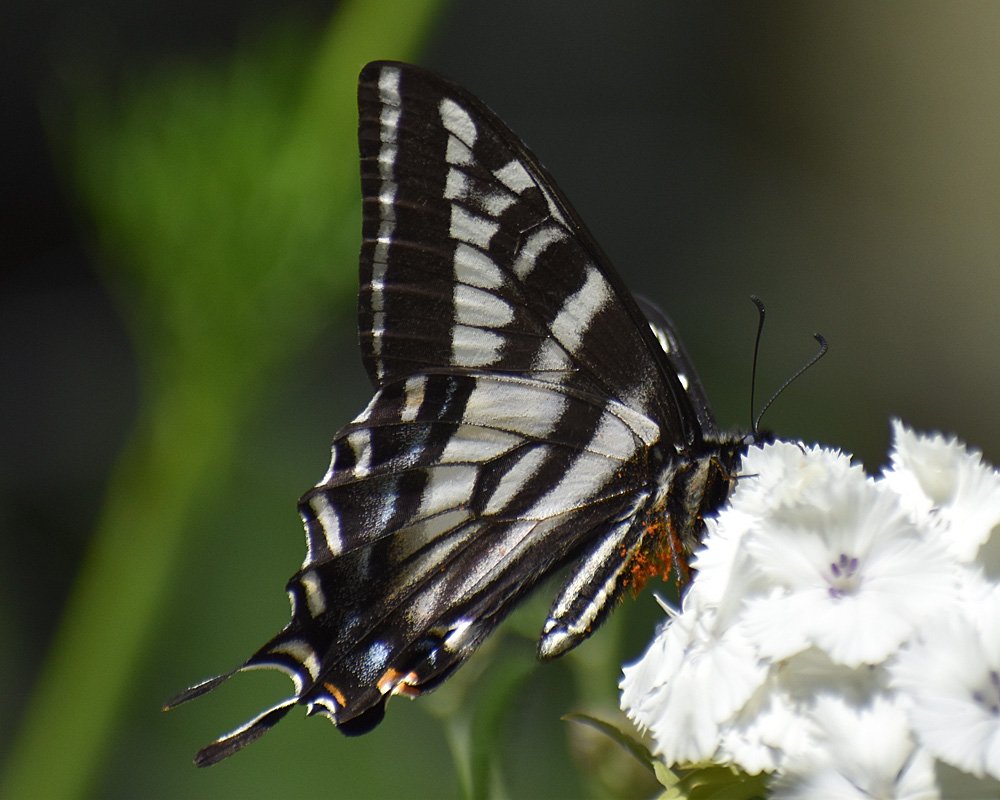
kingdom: Animalia
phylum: Arthropoda
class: Insecta
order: Lepidoptera
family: Papilionidae
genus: Pterourus
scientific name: Pterourus eurymedon
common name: Pale Swallowtail
